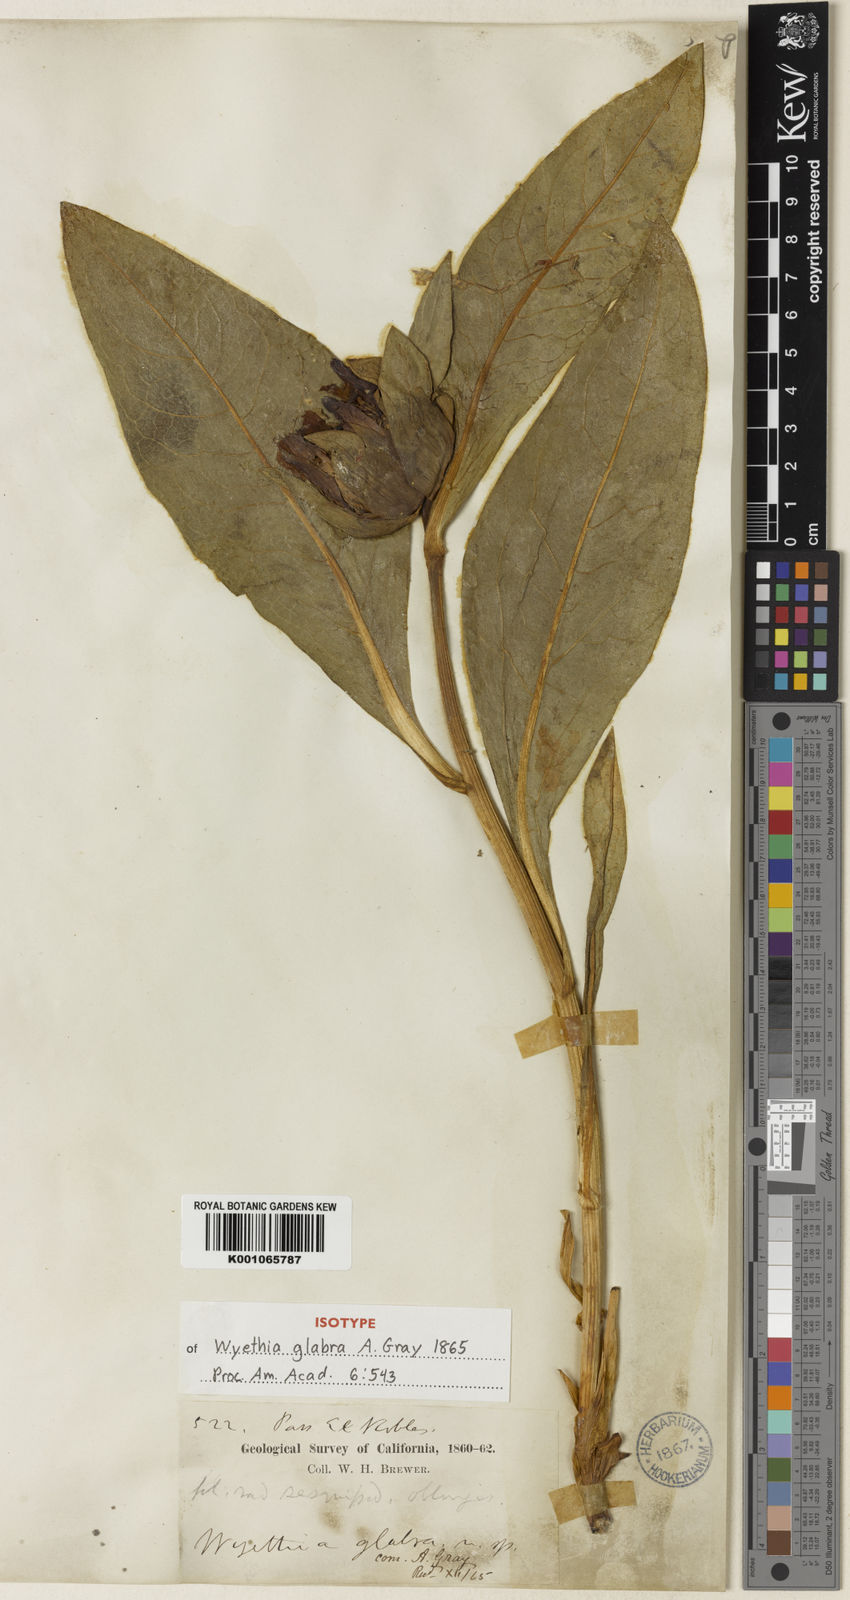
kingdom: Plantae
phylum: Tracheophyta
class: Magnoliopsida
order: Asterales
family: Asteraceae
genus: Wyethia
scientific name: Wyethia glabra
